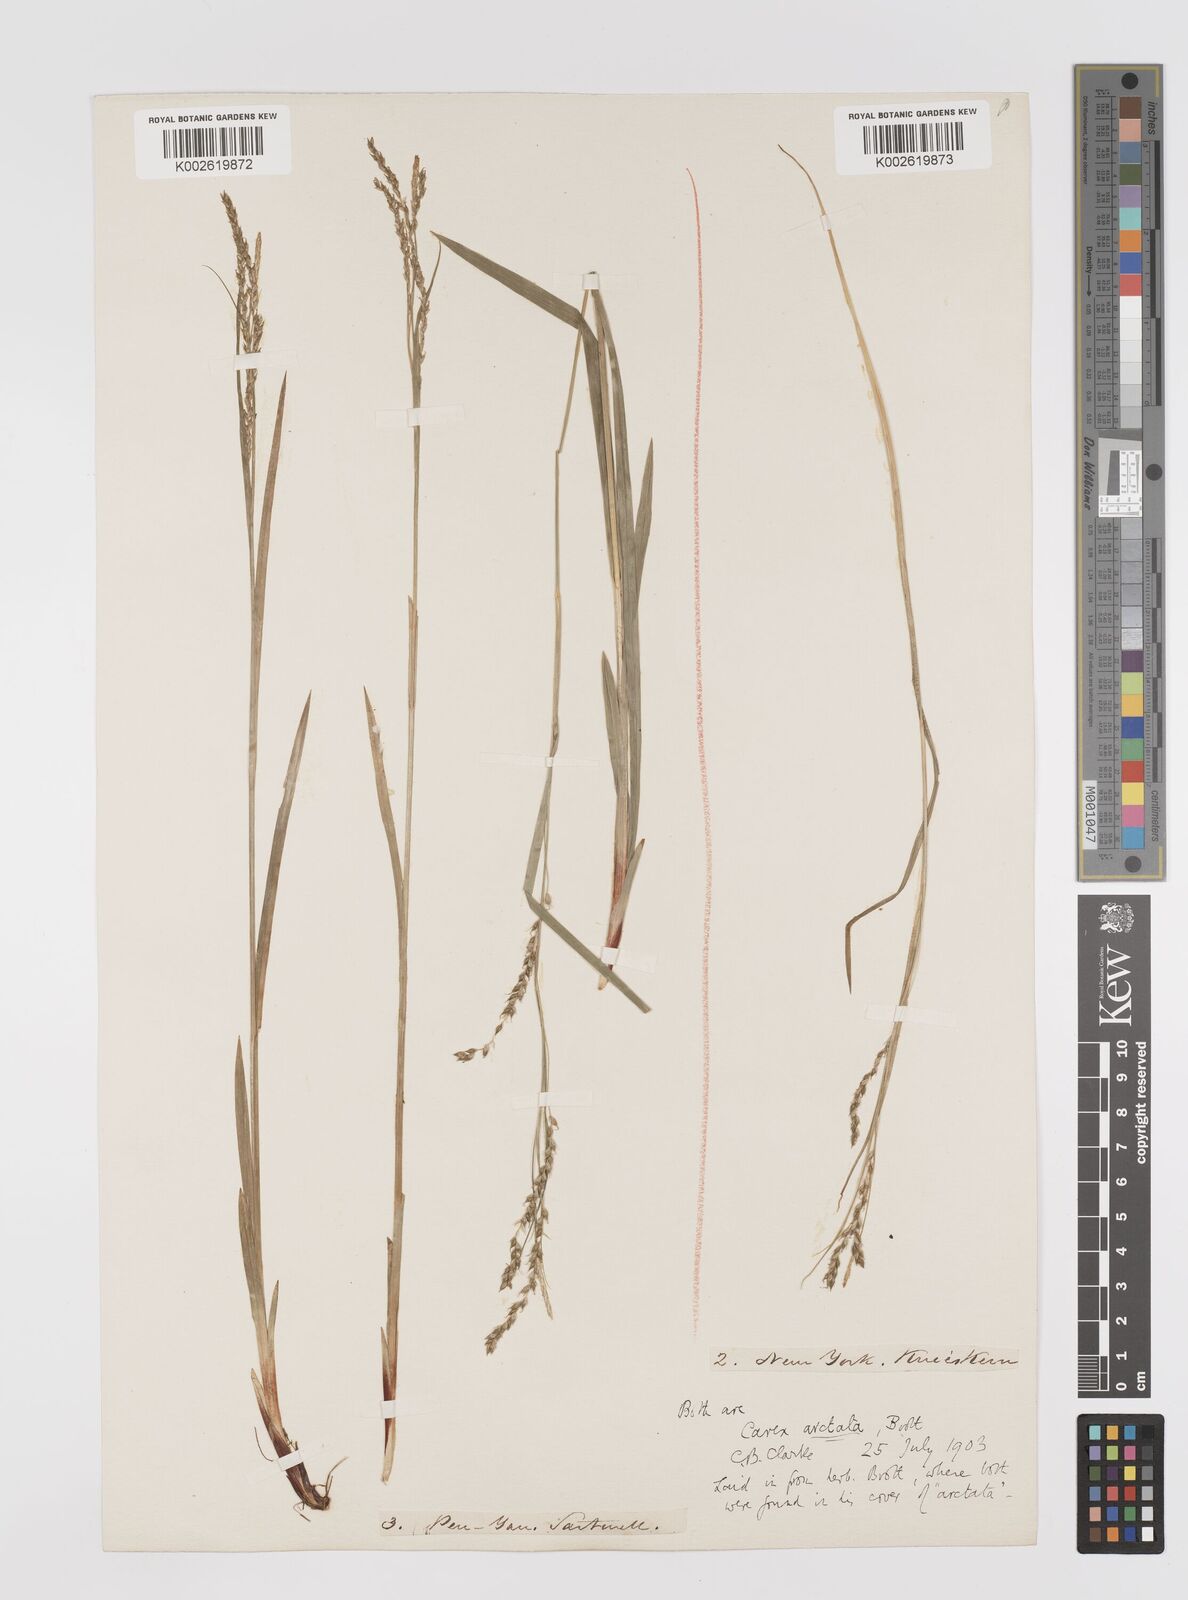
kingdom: Plantae
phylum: Tracheophyta
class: Liliopsida
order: Poales
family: Cyperaceae
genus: Carex
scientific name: Carex arctata
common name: Black sedge
